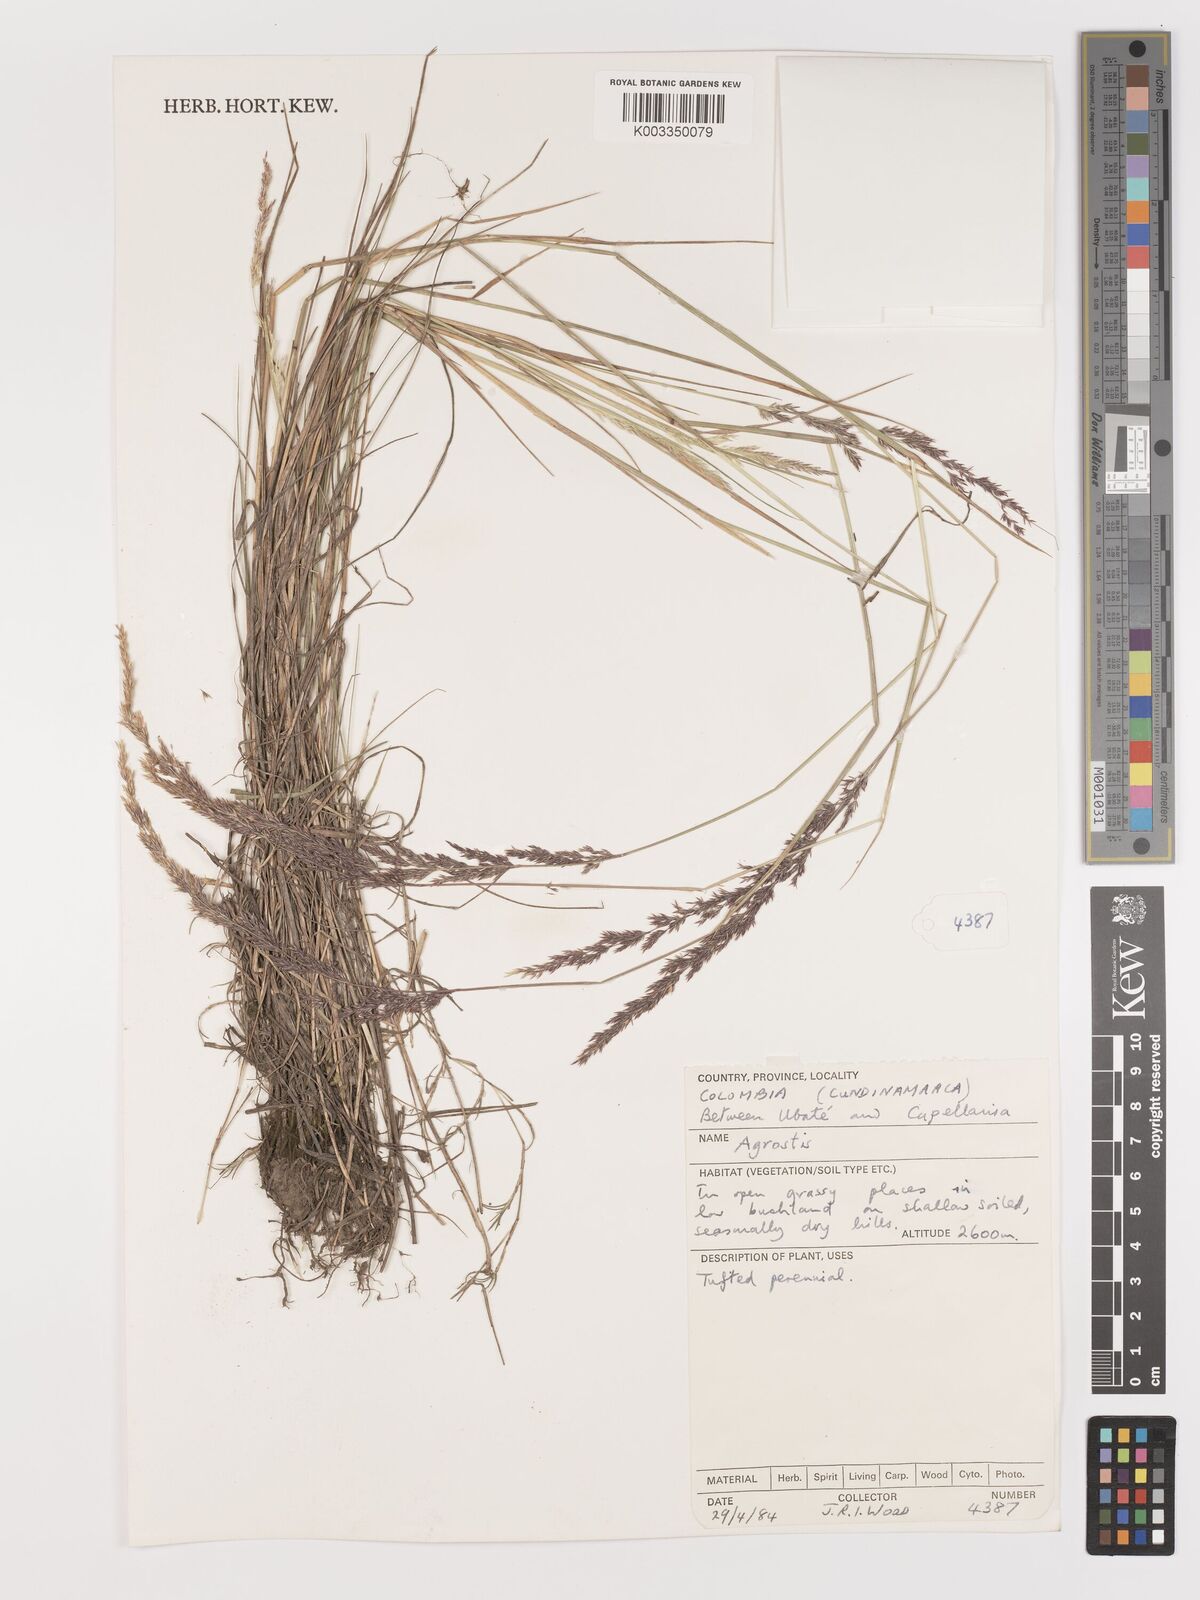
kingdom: Plantae
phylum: Tracheophyta
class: Liliopsida
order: Poales
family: Poaceae
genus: Agrostis
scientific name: Agrostis
